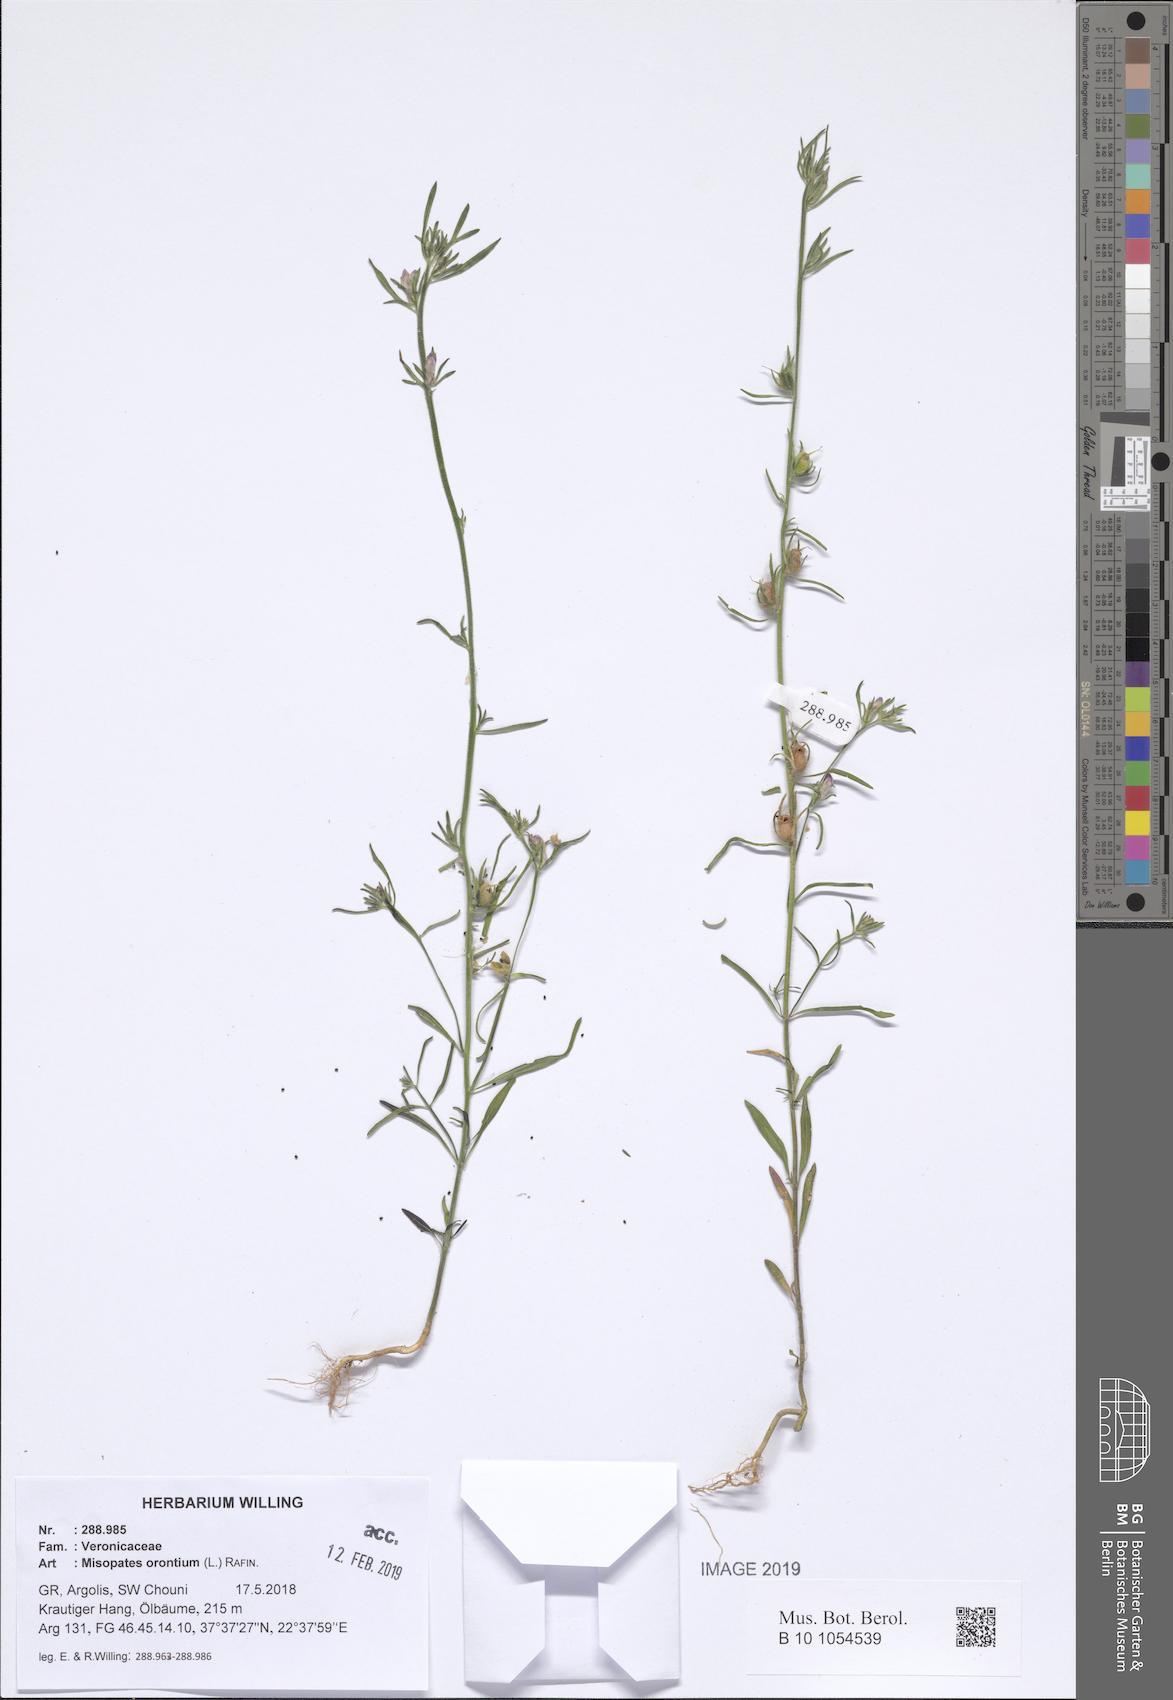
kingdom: Plantae
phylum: Tracheophyta
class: Magnoliopsida
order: Lamiales
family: Plantaginaceae
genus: Misopates
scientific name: Misopates orontium
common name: Weasel's-snout
